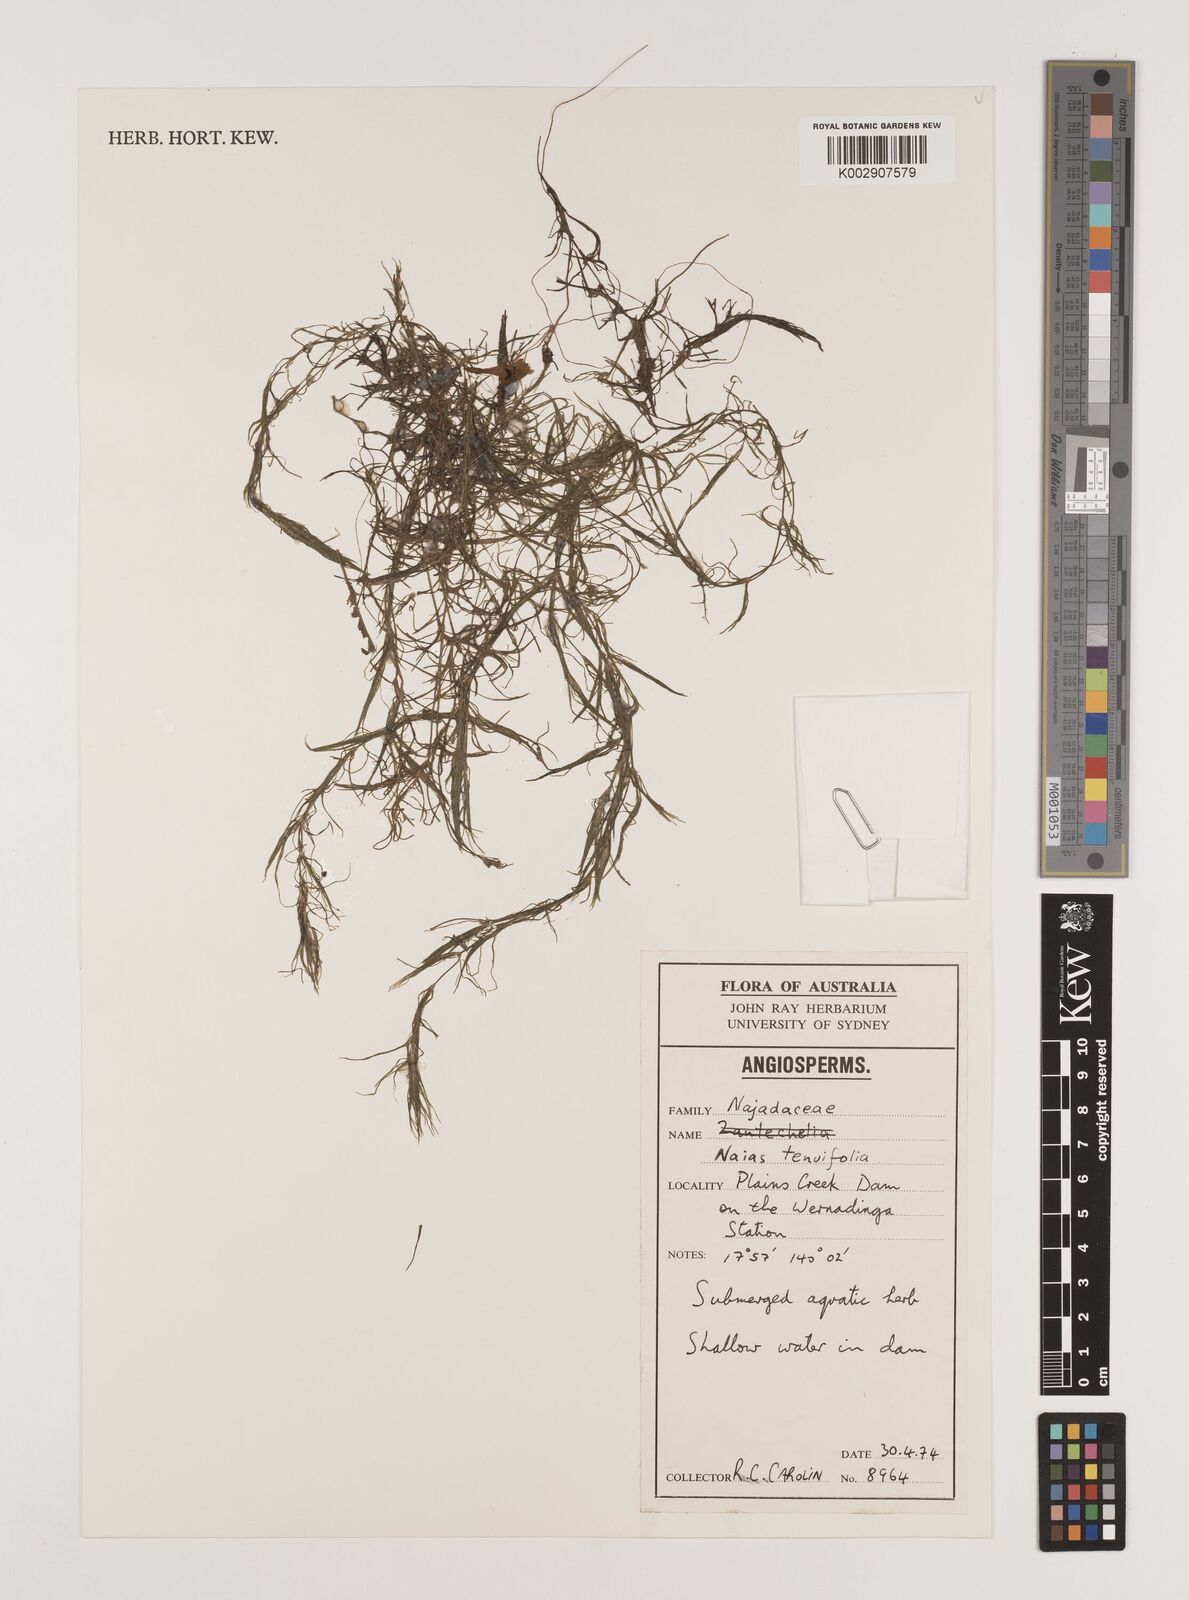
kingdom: Plantae
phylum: Tracheophyta
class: Liliopsida
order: Alismatales
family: Hydrocharitaceae
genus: Najas
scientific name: Najas tenuifolia
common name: Thin-leaved naiad
